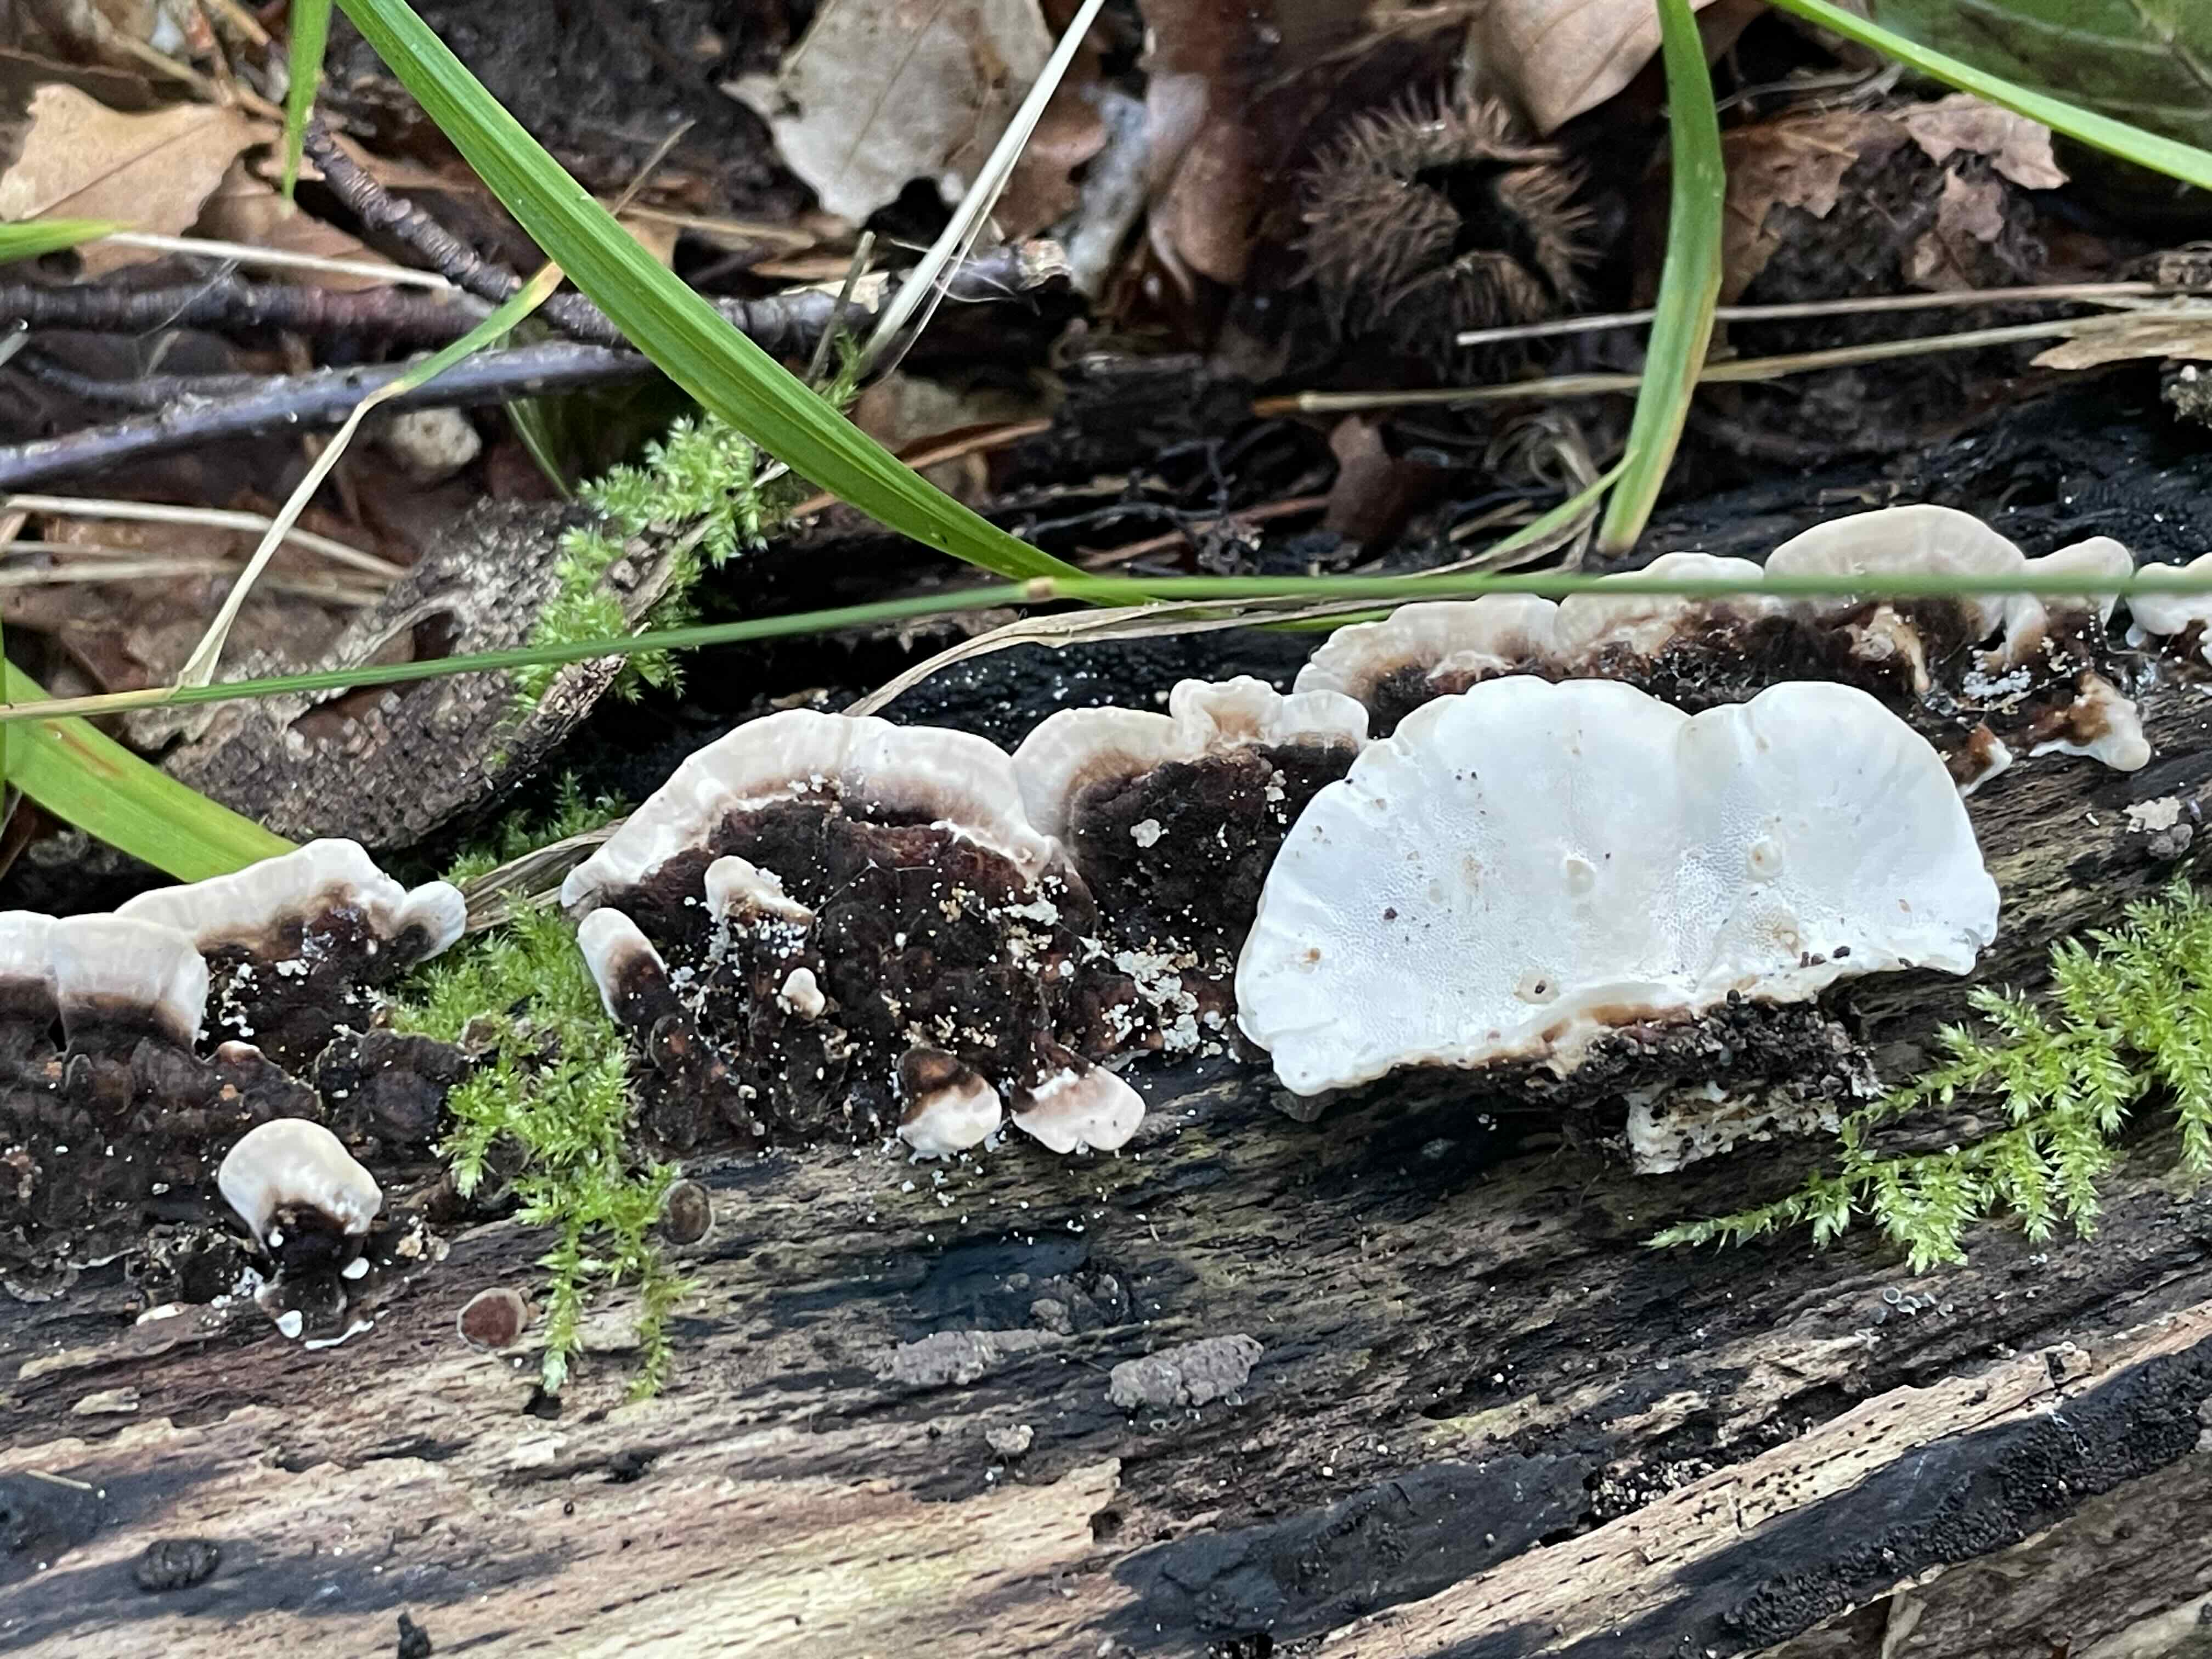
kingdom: Fungi
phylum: Basidiomycota
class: Agaricomycetes
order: Polyporales
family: Polyporaceae
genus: Trametes
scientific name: Trametes versicolor
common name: broget læderporesvamp
